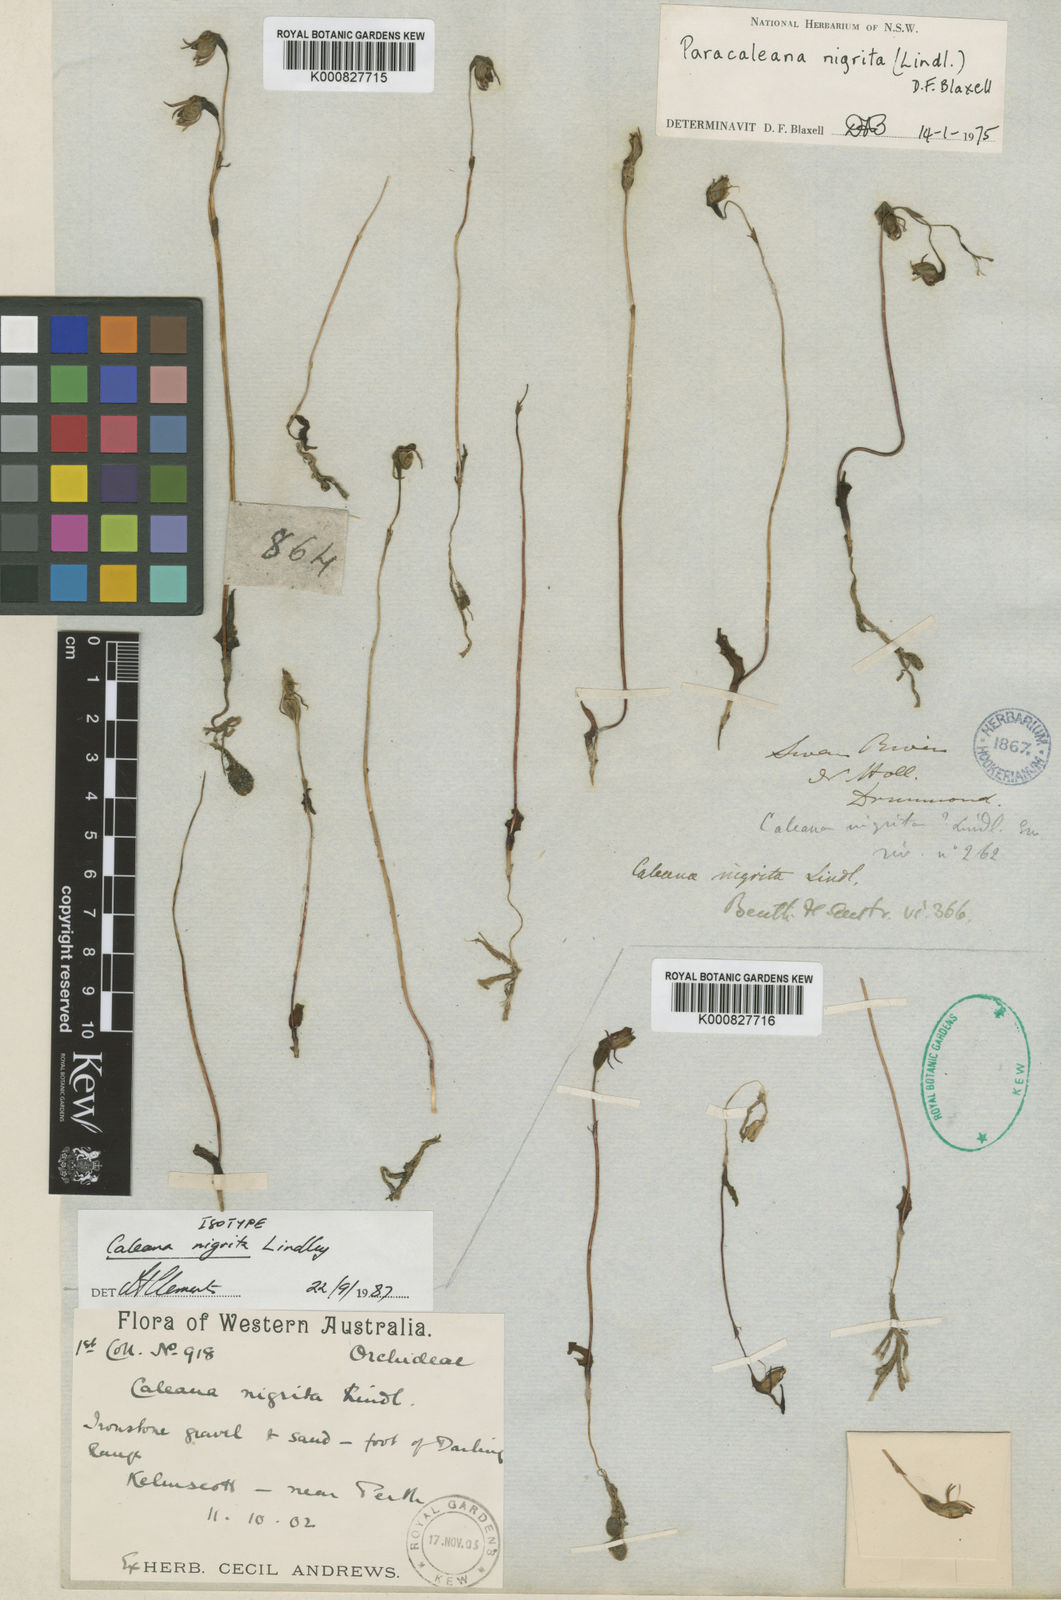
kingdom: Plantae
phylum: Tracheophyta
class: Liliopsida
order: Asparagales
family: Orchidaceae
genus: Caleana
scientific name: Caleana nigrita
